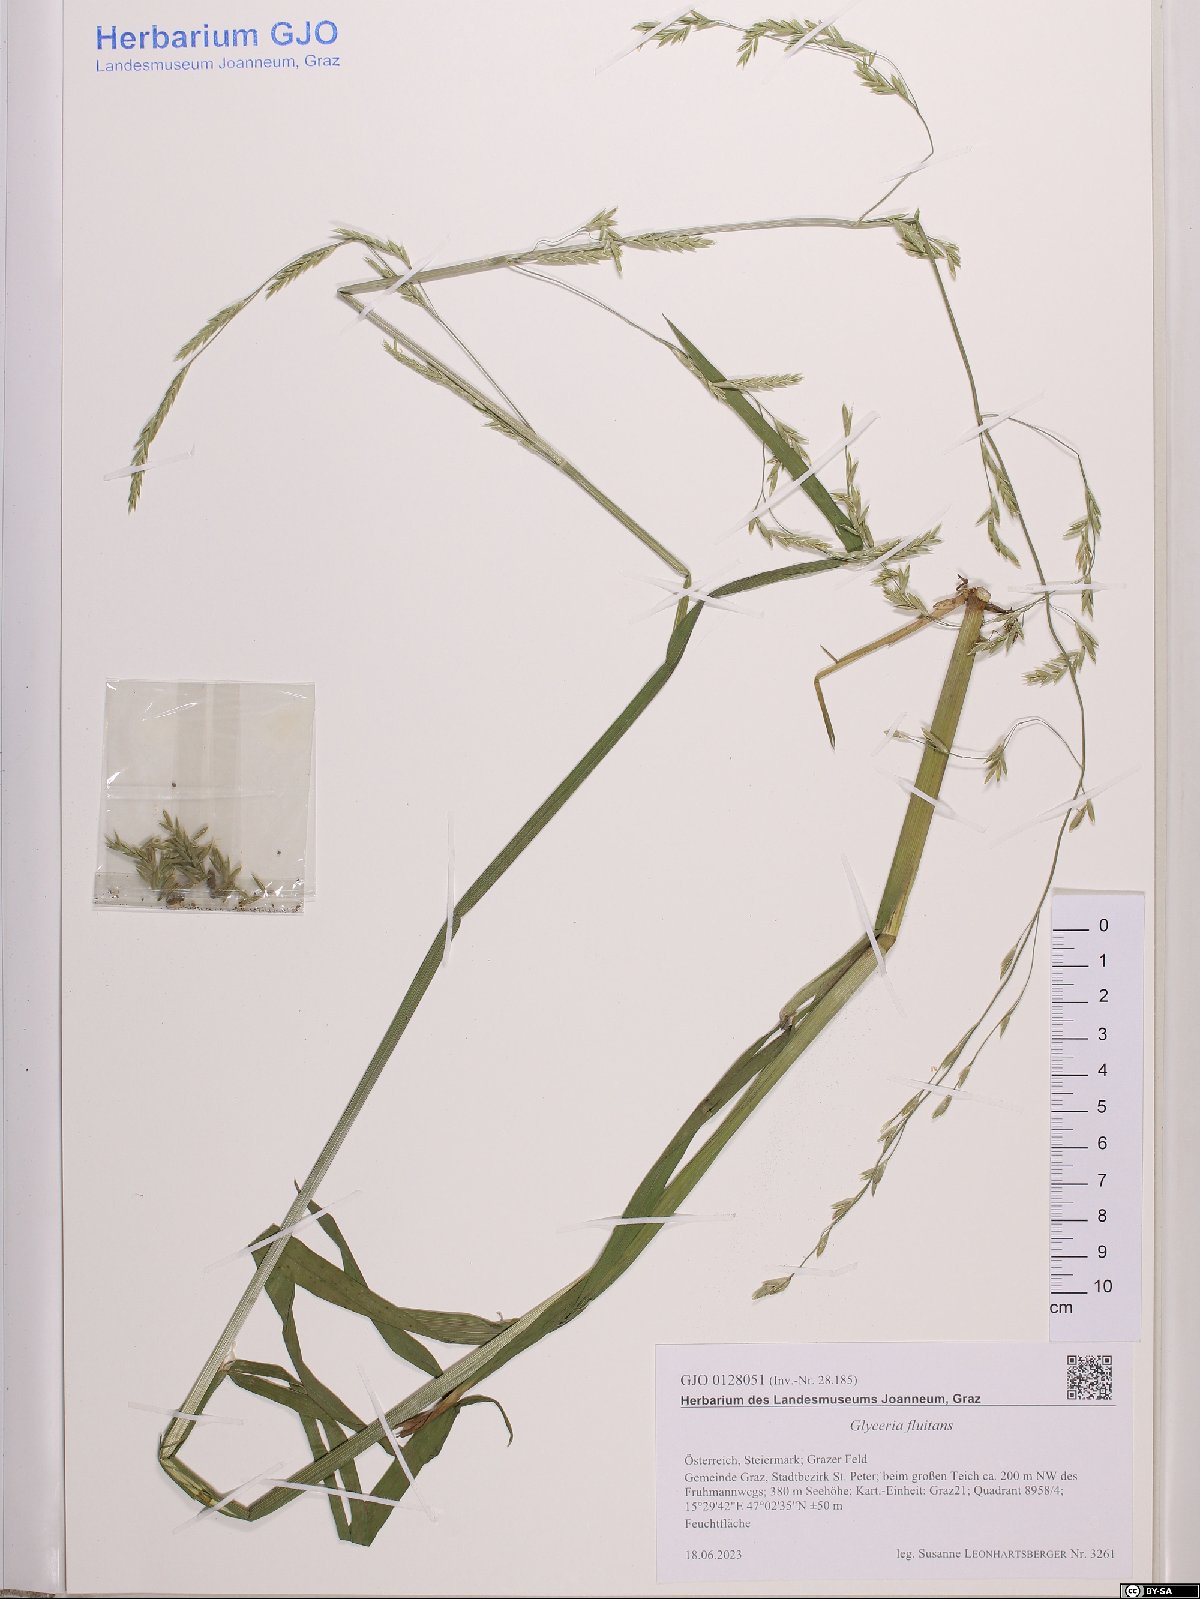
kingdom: Plantae
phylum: Tracheophyta
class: Liliopsida
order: Poales
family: Poaceae
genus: Glyceria
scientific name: Glyceria fluitans
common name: Floating sweet-grass
